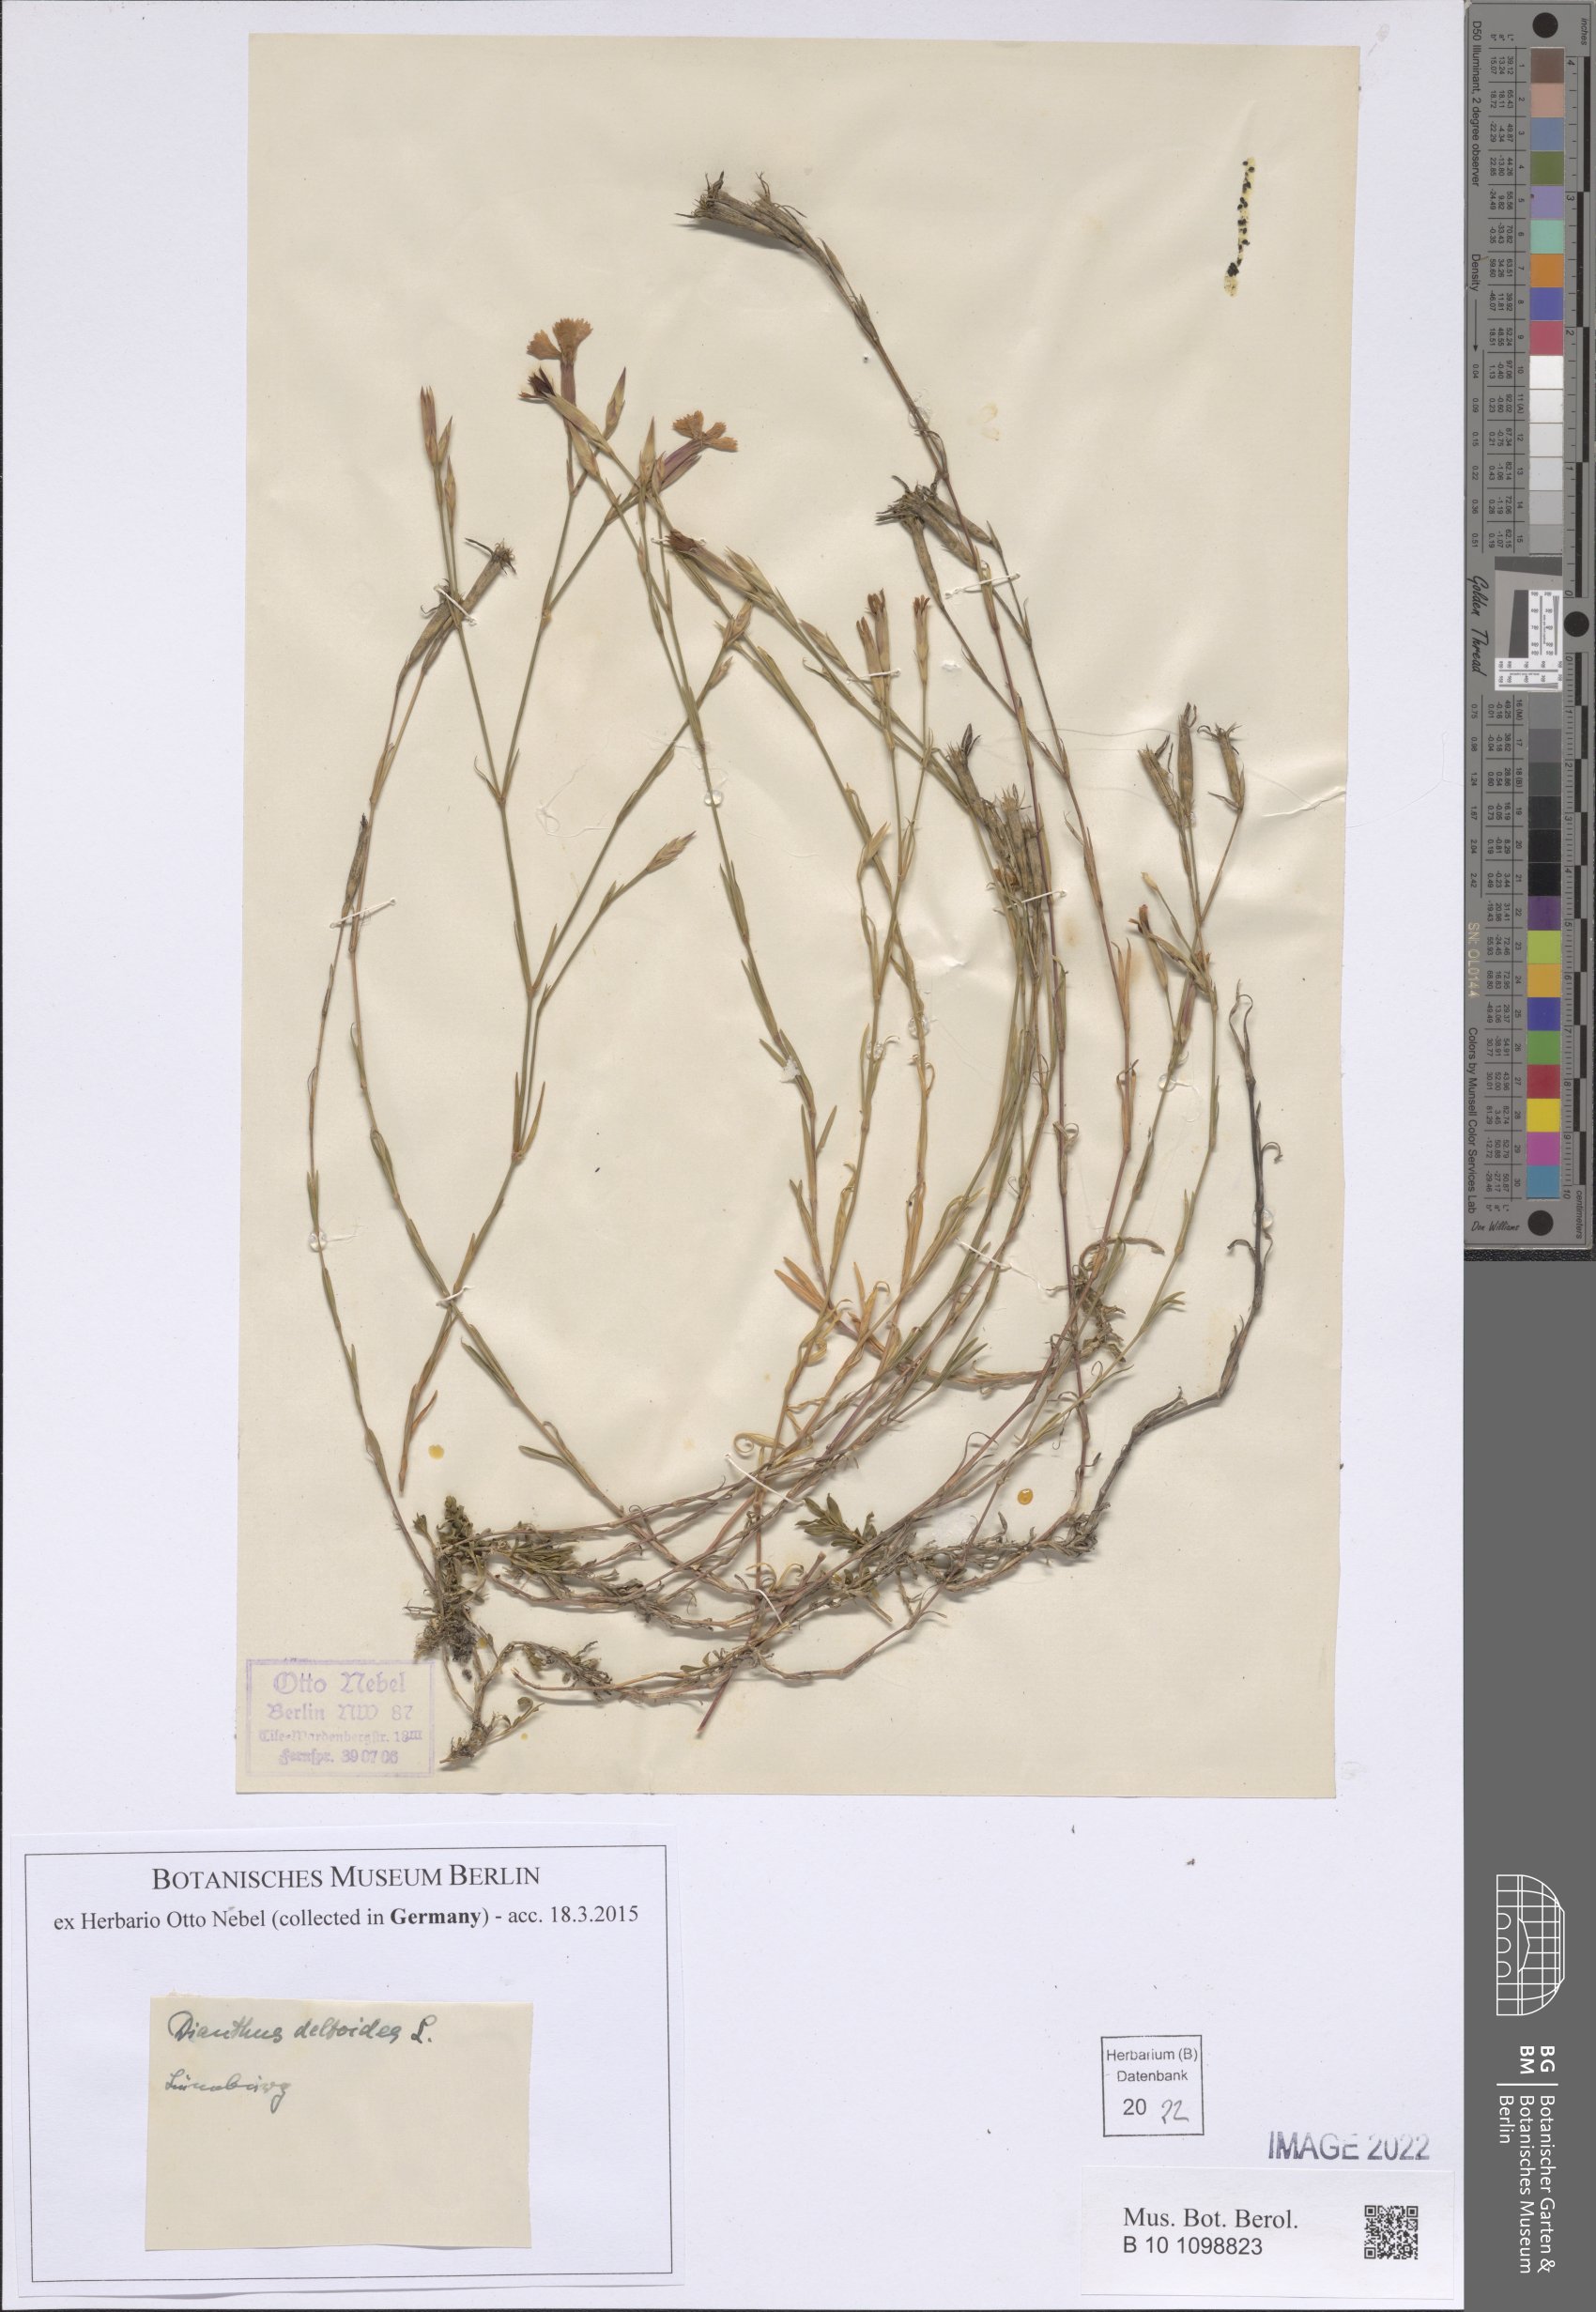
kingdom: Plantae
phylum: Tracheophyta
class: Magnoliopsida
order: Caryophyllales
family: Caryophyllaceae
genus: Dianthus
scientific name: Dianthus deltoides
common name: Maiden pink
